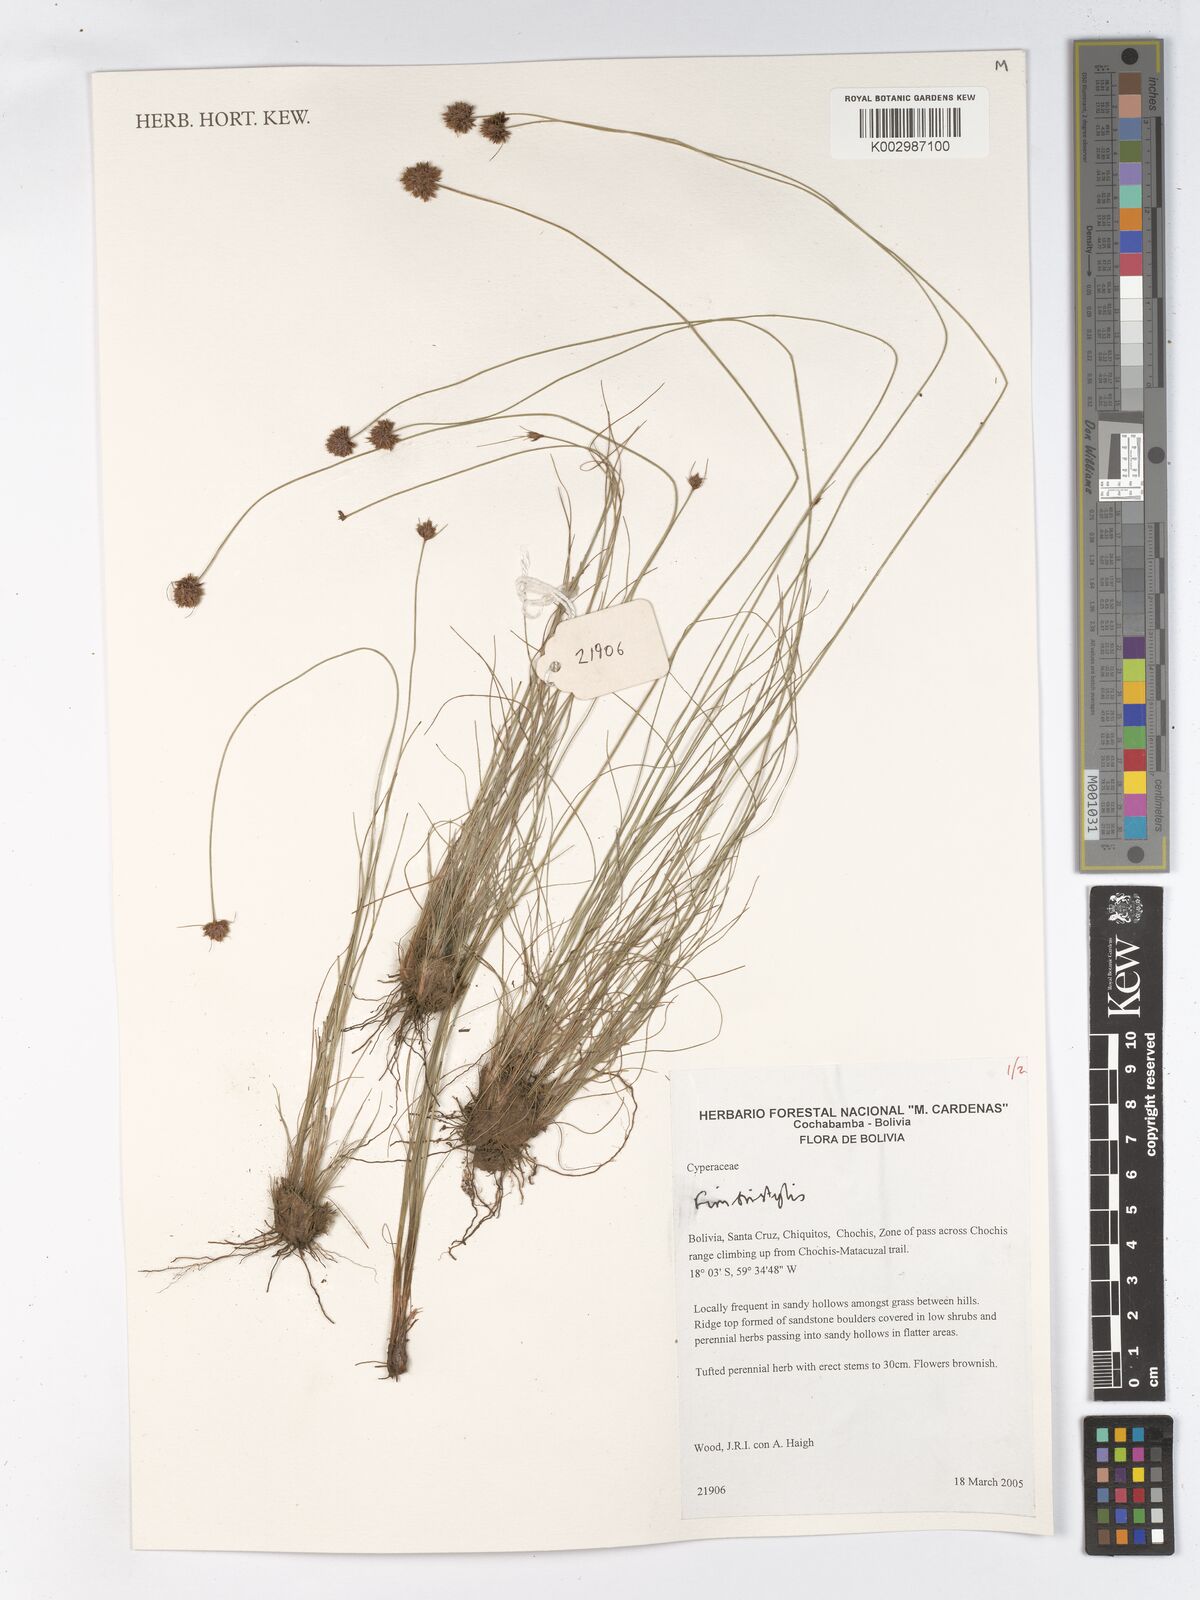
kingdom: Plantae
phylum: Tracheophyta
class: Liliopsida
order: Poales
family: Cyperaceae
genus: Fimbristylis
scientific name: Fimbristylis
